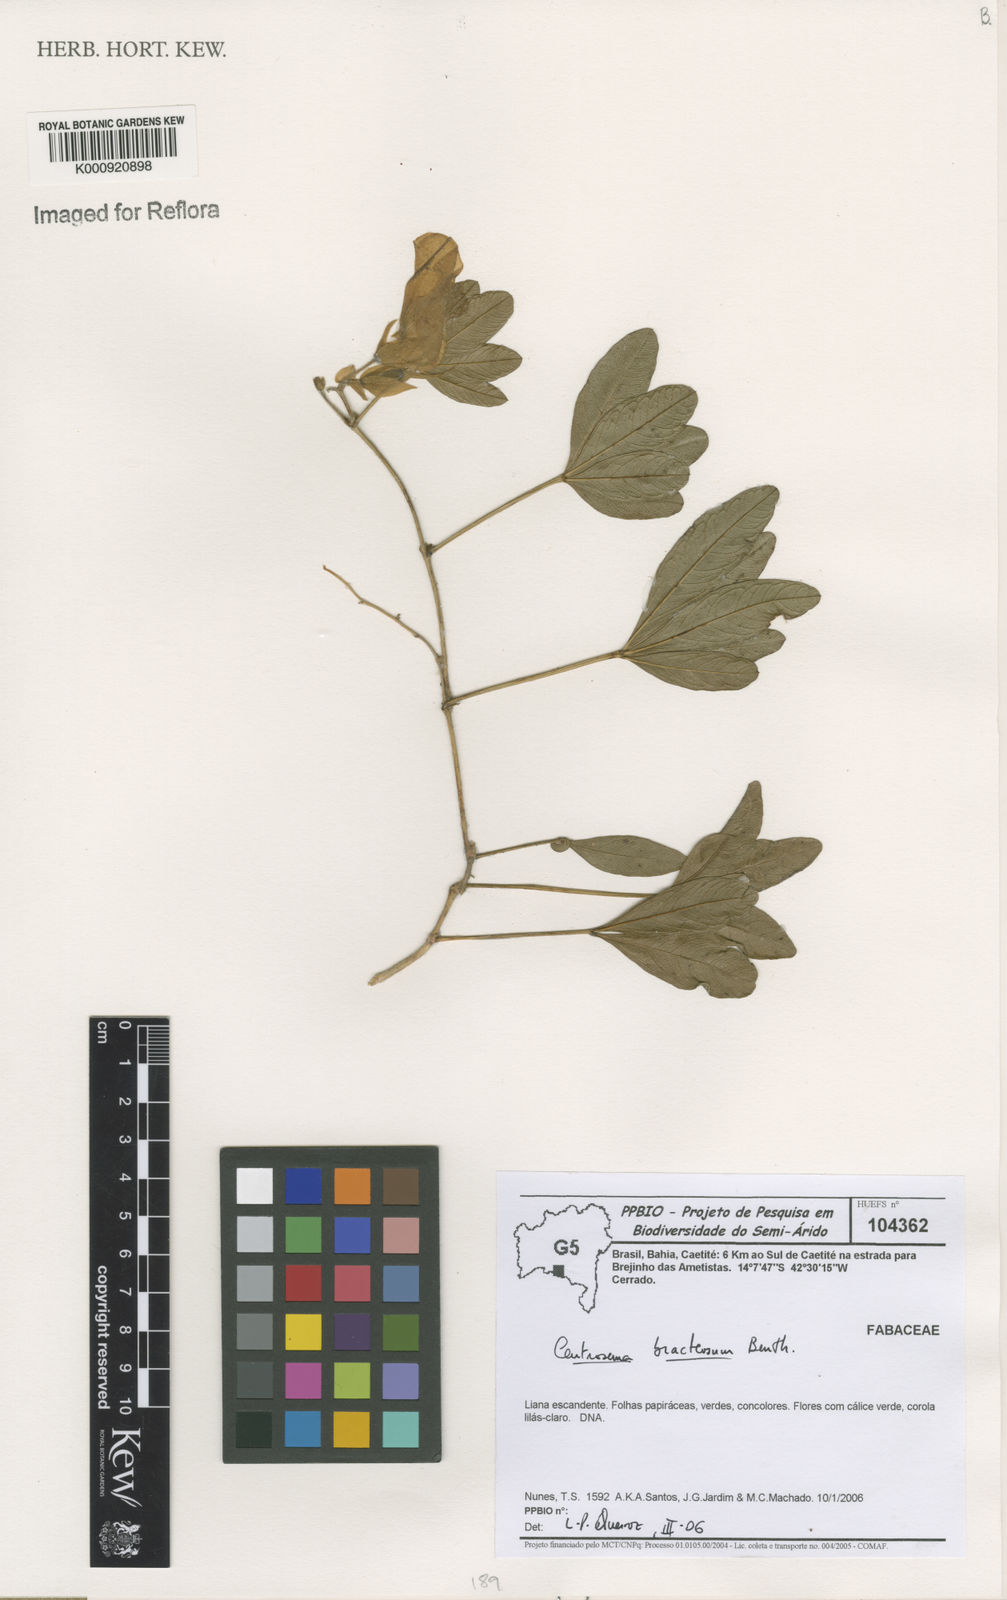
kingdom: Plantae
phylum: Tracheophyta
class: Magnoliopsida
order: Fabales
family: Fabaceae
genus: Centrosema
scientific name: Centrosema bracteosum
